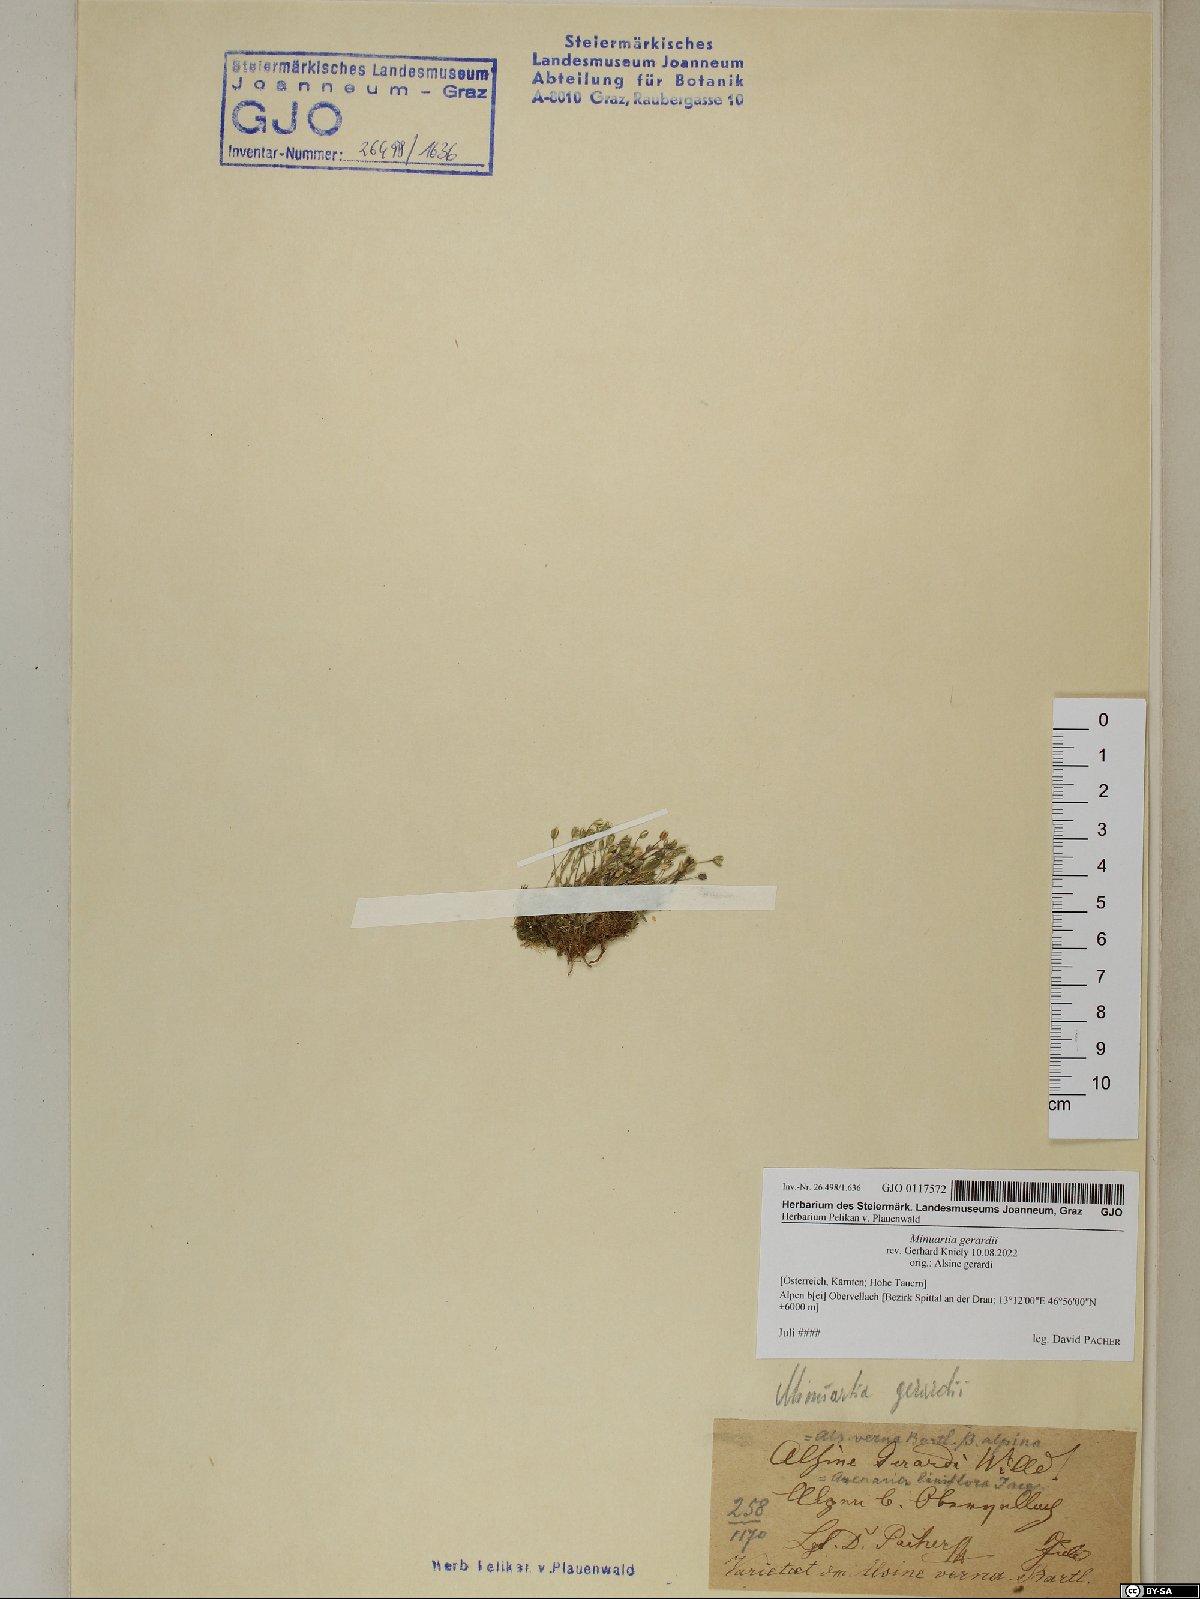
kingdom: Plantae
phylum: Tracheophyta
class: Magnoliopsida
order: Caryophyllales
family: Caryophyllaceae
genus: Sabulina
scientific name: Sabulina verna
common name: Spring sandwort
